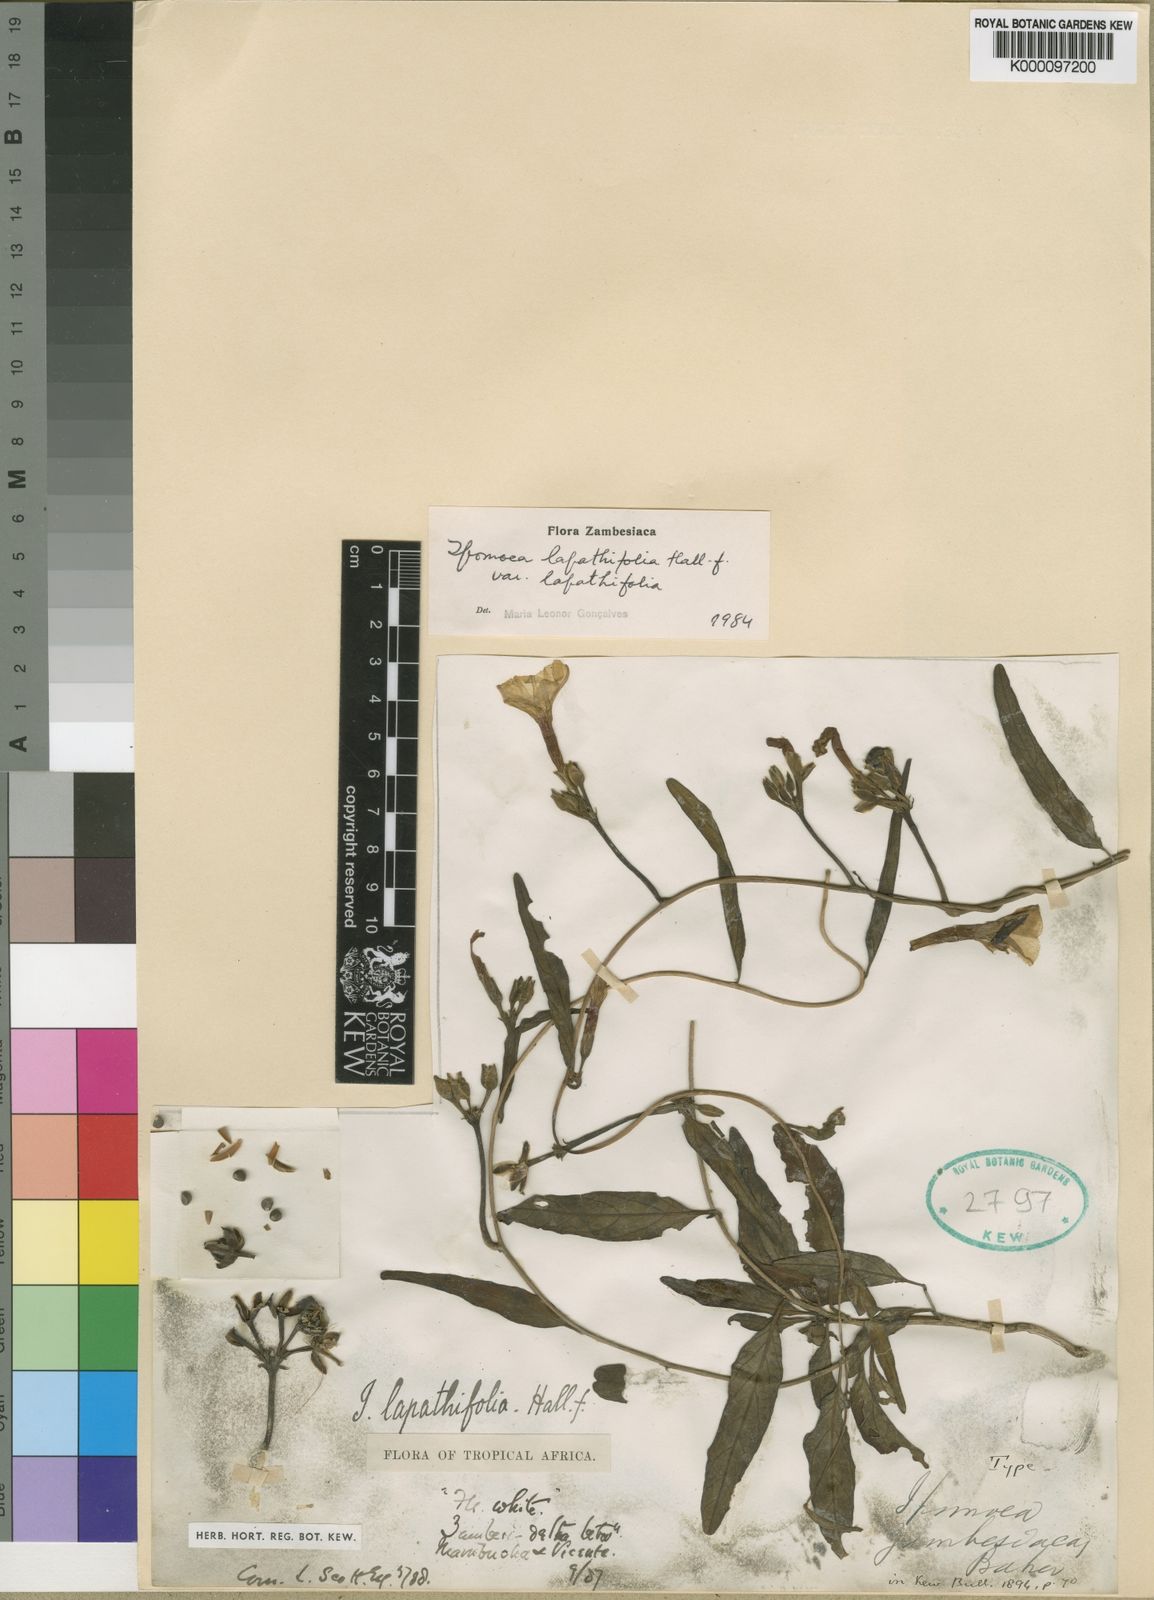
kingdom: Plantae
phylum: Tracheophyta
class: Magnoliopsida
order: Solanales
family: Convolvulaceae
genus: Ipomoea
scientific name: Ipomoea lapathifolia
